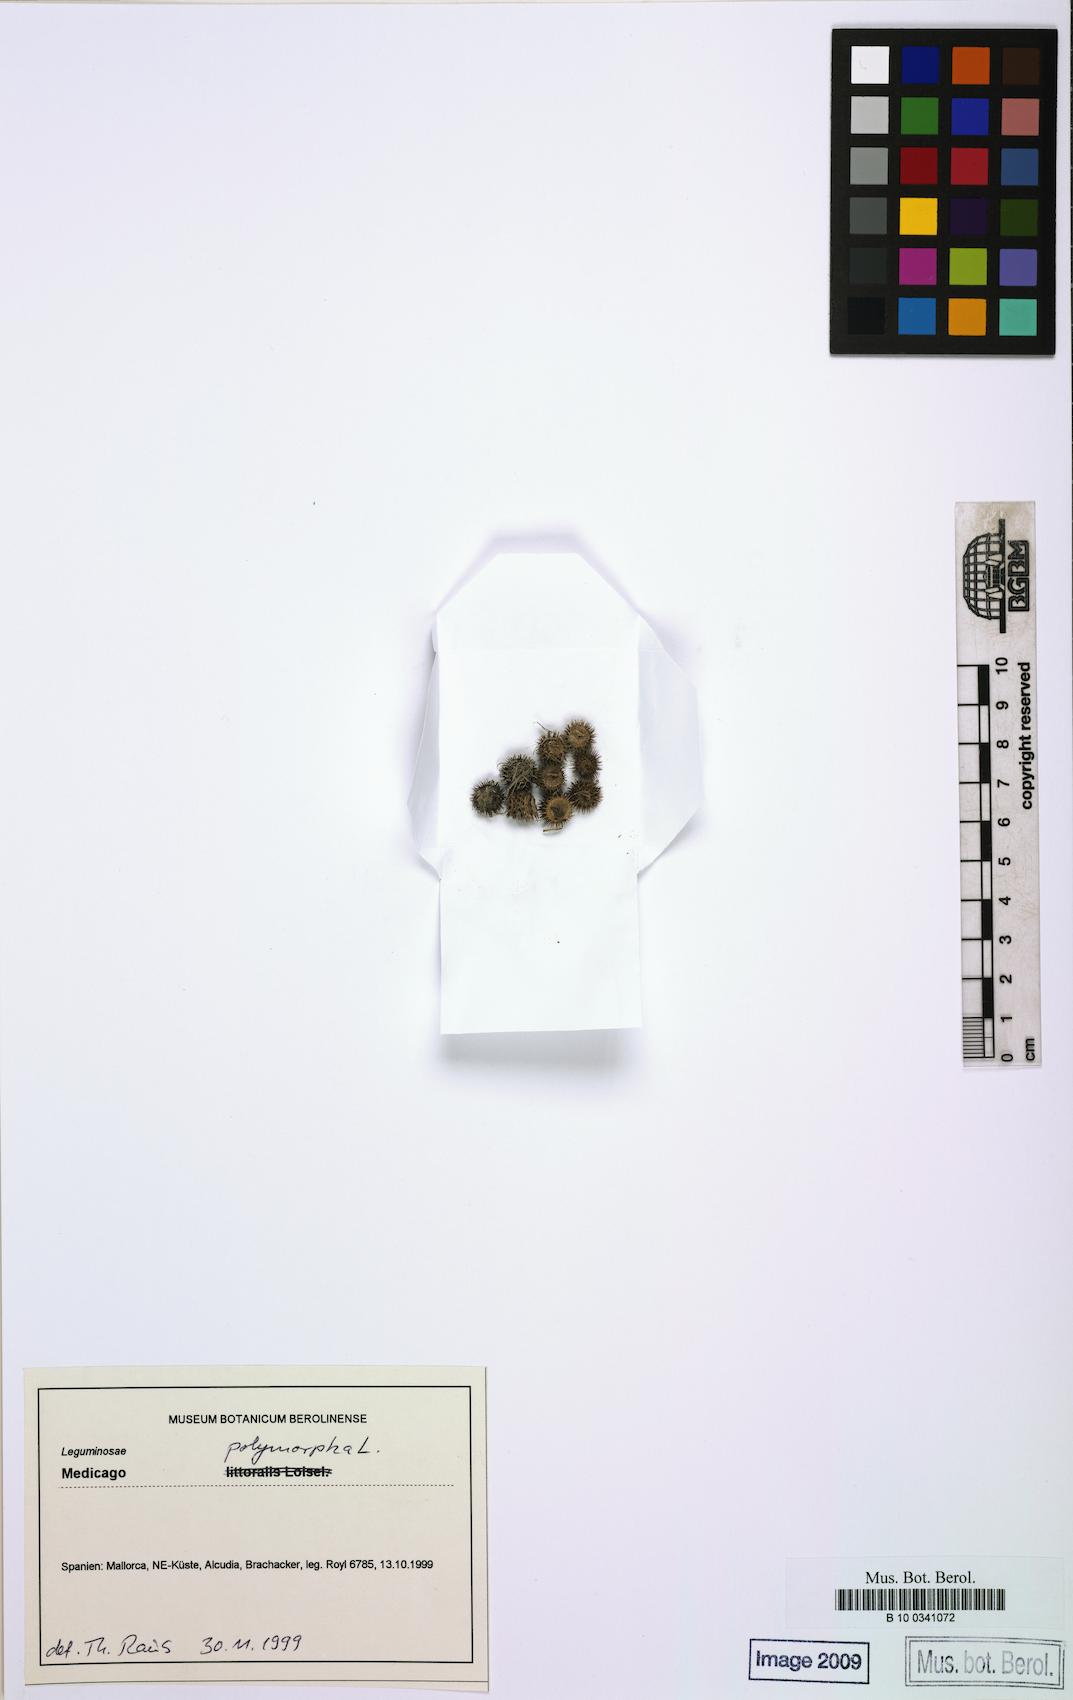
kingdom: Plantae
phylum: Tracheophyta
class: Magnoliopsida
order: Fabales
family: Fabaceae
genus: Medicago
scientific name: Medicago polymorpha
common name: Burclover
